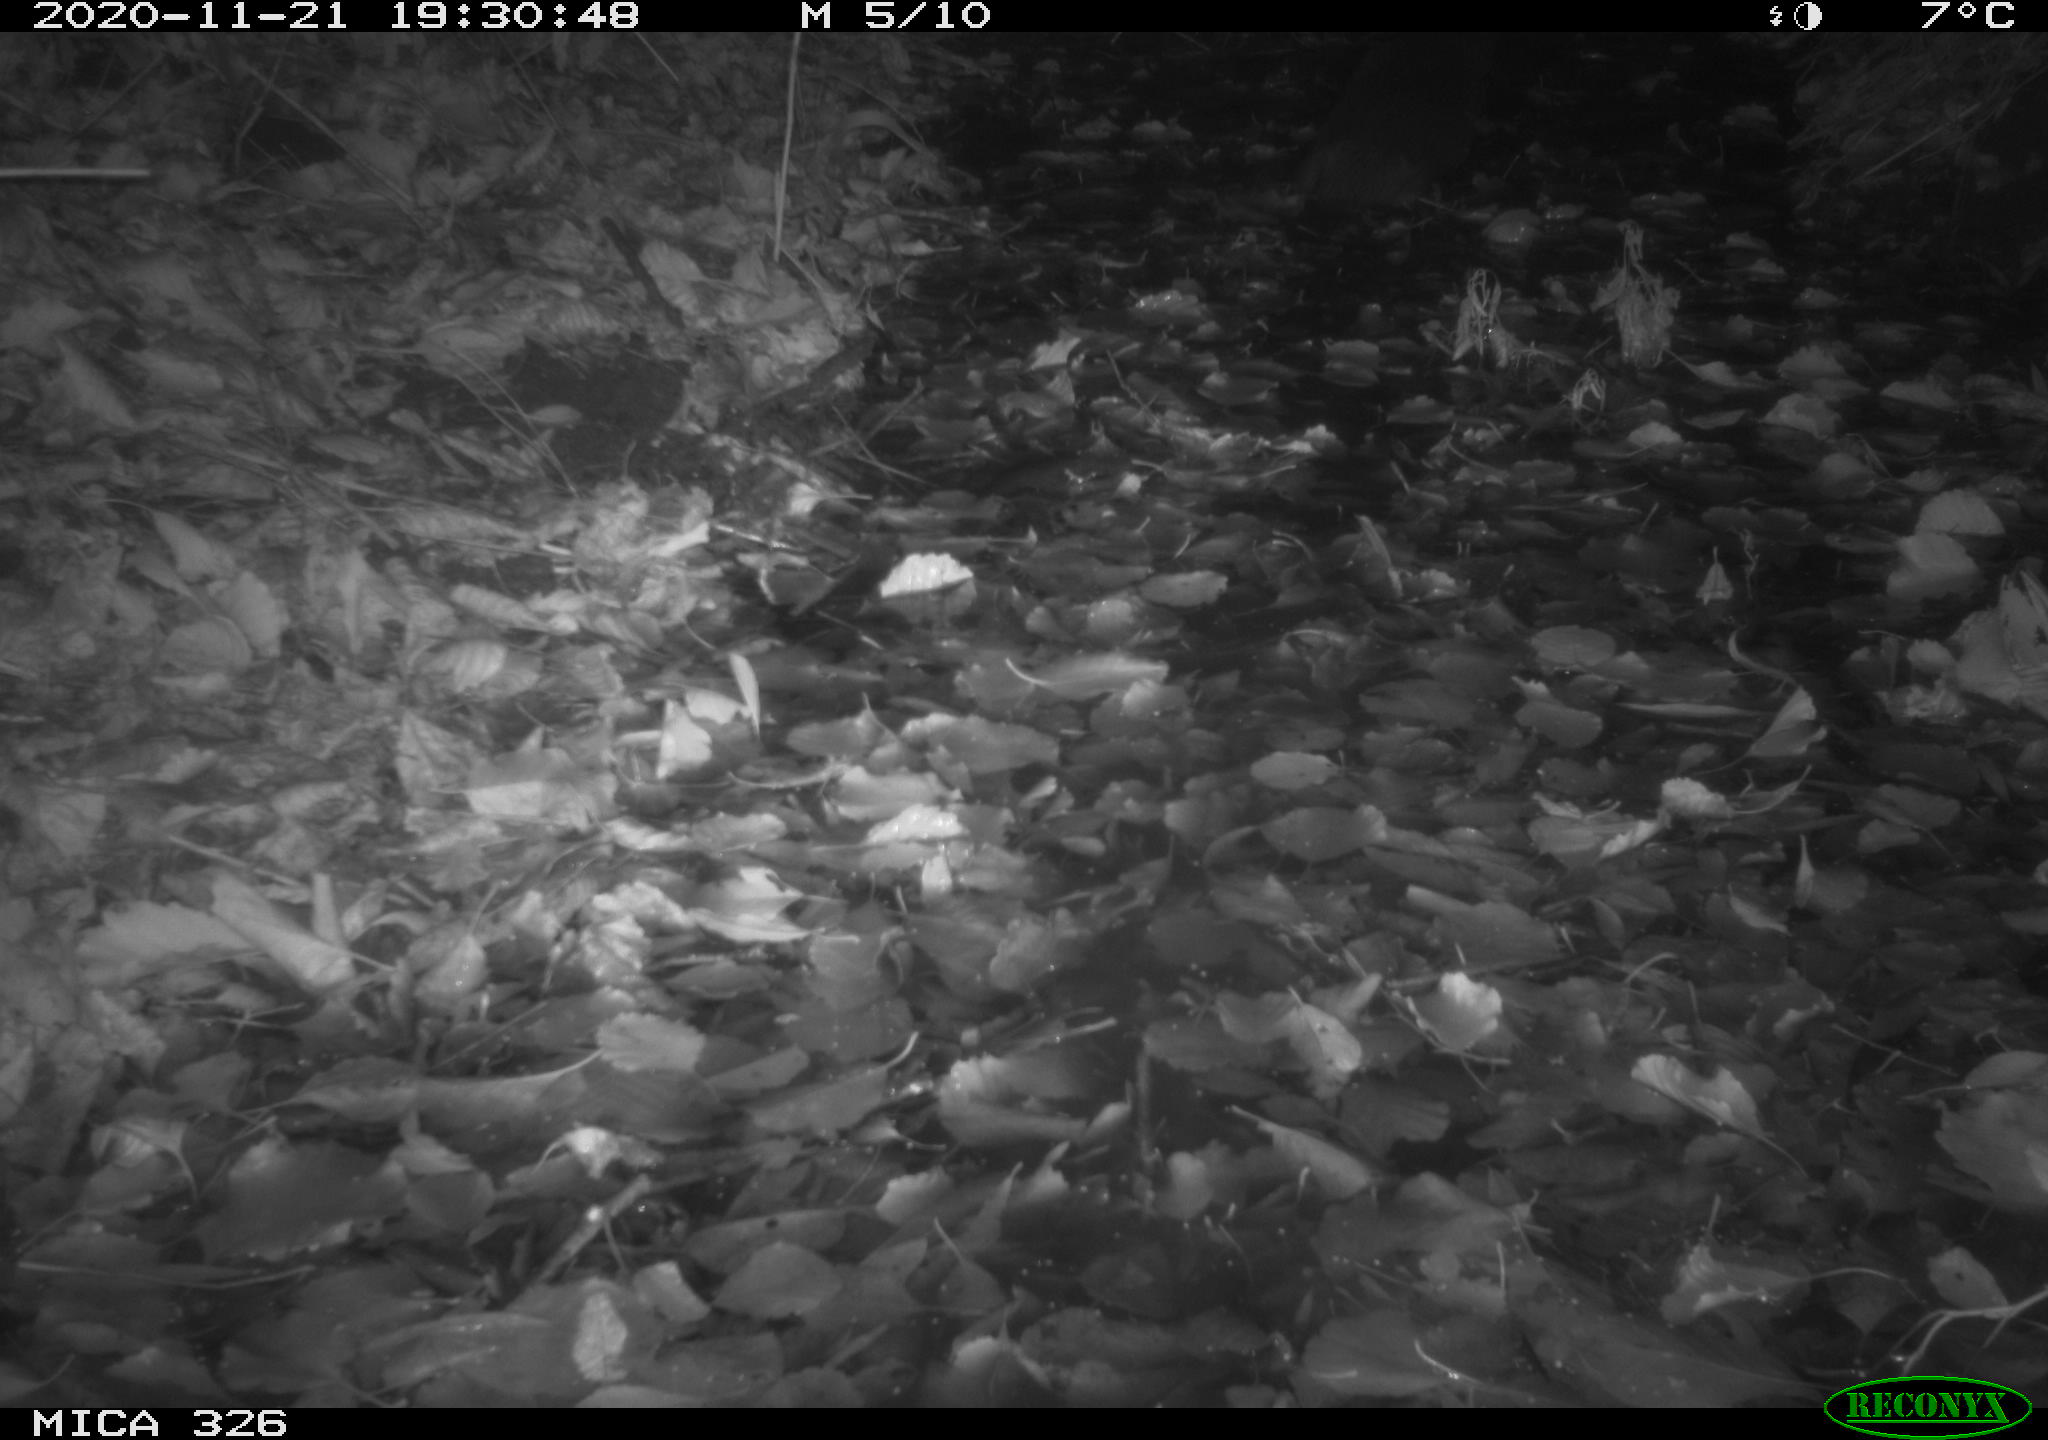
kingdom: Animalia
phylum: Chordata
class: Mammalia
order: Carnivora
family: Mustelidae
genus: Lutra
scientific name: Lutra lutra
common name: European otter
